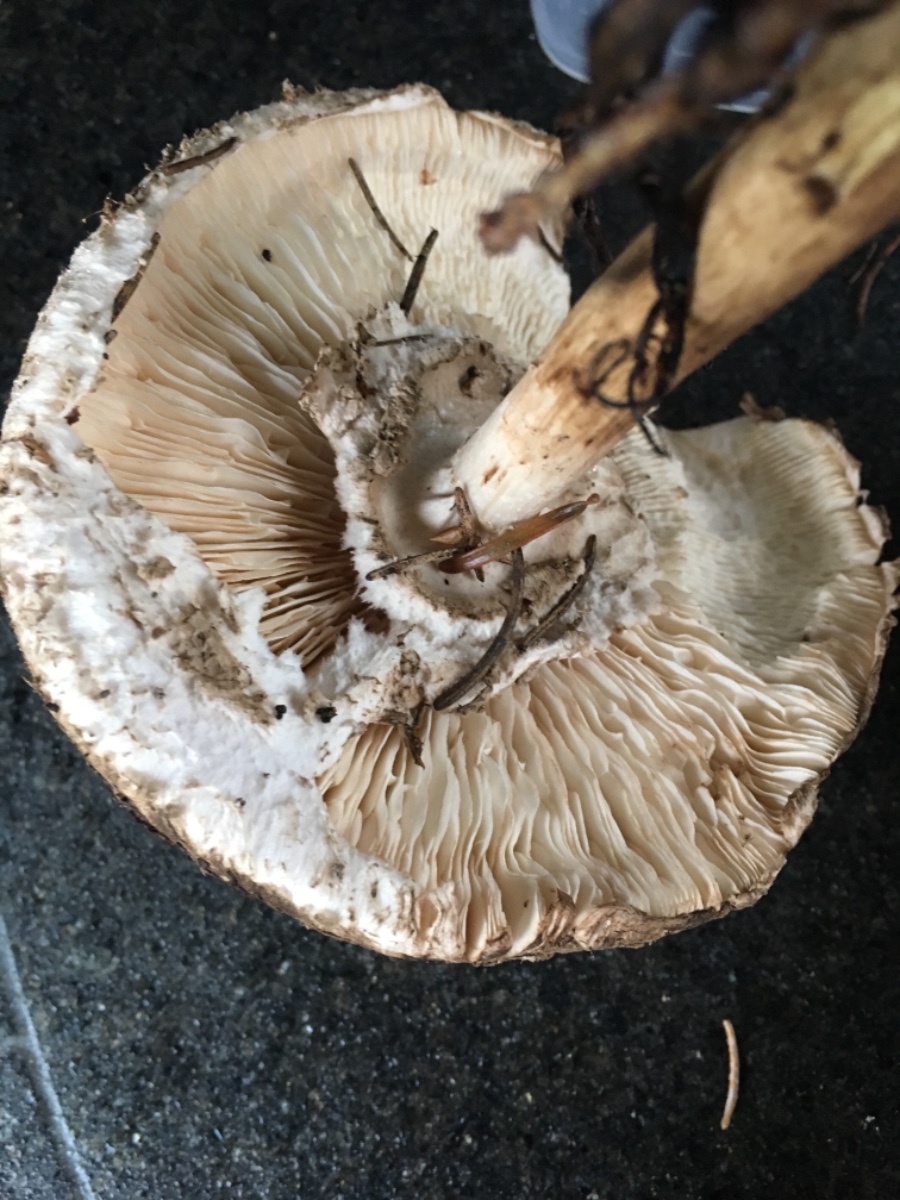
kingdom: Fungi
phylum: Basidiomycota
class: Agaricomycetes
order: Agaricales
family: Agaricaceae
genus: Chlorophyllum
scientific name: Chlorophyllum olivieri
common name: almindelig rabarberhat
